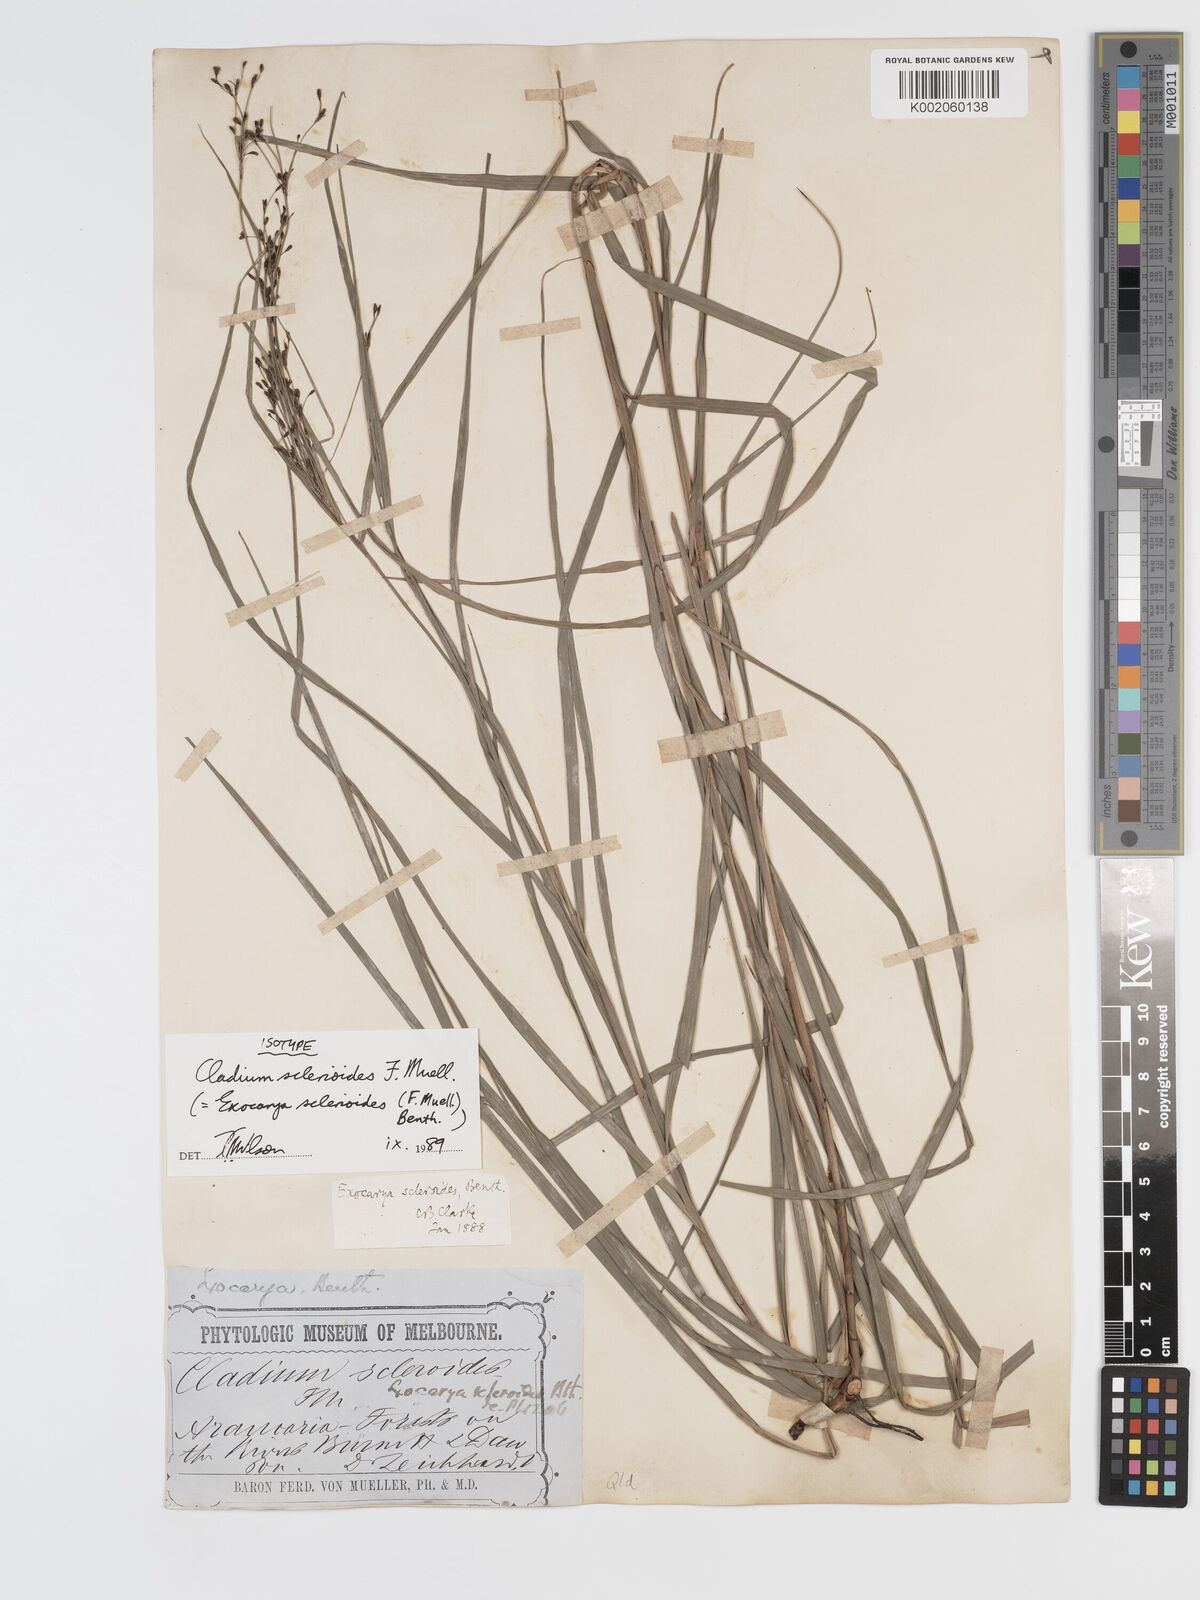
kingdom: Plantae
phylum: Tracheophyta
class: Liliopsida
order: Poales
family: Cyperaceae
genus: Exocarya
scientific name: Exocarya sclerioides
